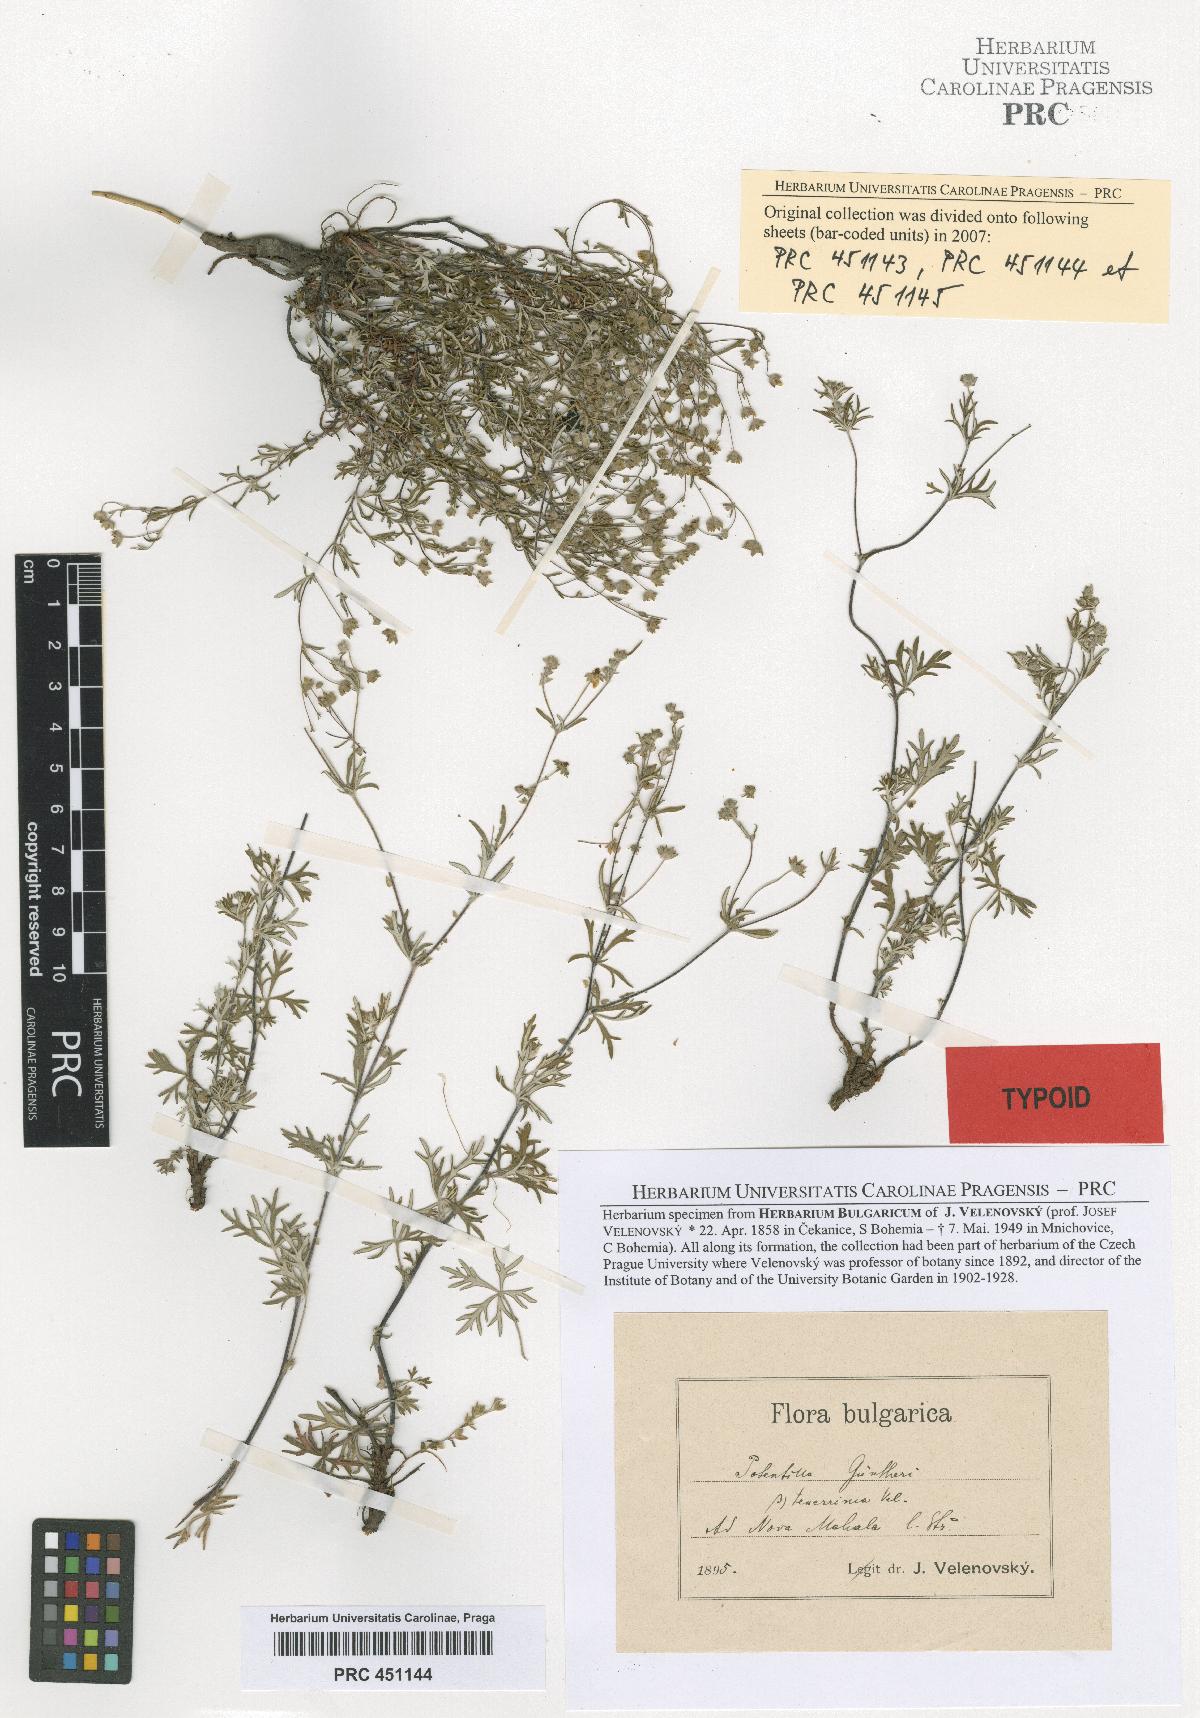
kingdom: Plantae
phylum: Tracheophyta
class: Magnoliopsida
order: Rosales
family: Rosaceae
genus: Potentilla
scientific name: Potentilla
